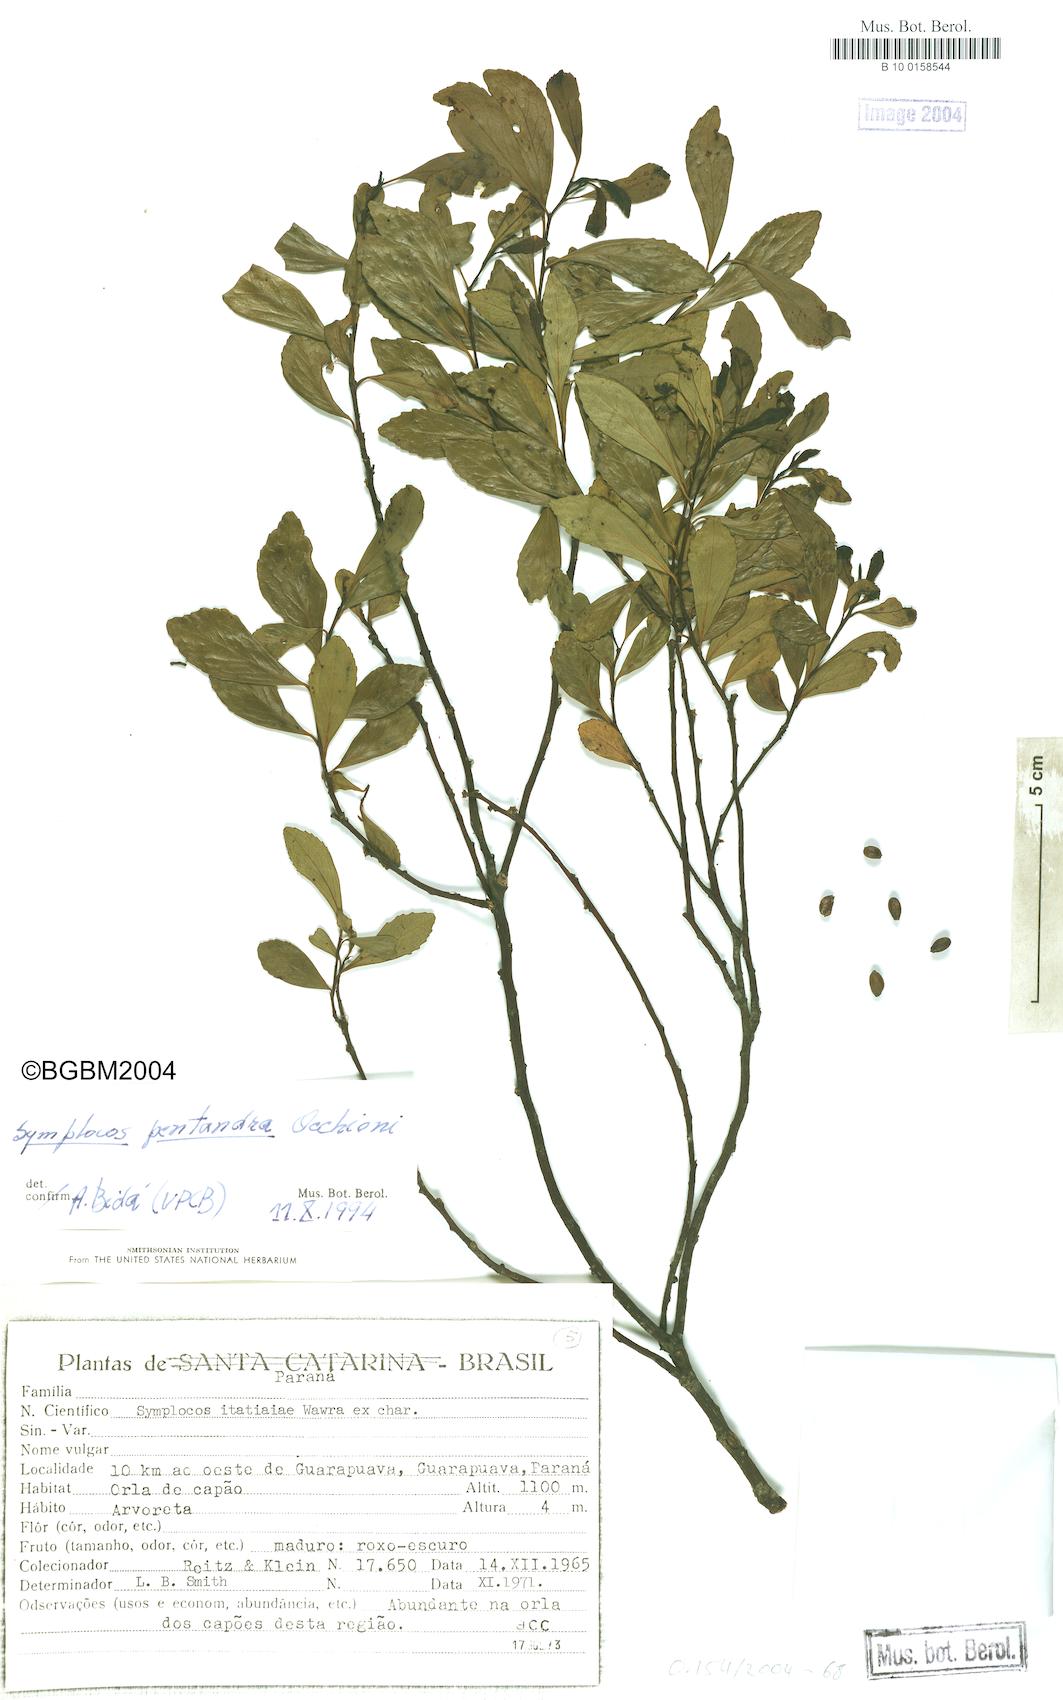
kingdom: Plantae
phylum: Tracheophyta
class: Magnoliopsida
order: Ericales
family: Symplocaceae
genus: Symplocos
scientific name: Symplocos pentandra
